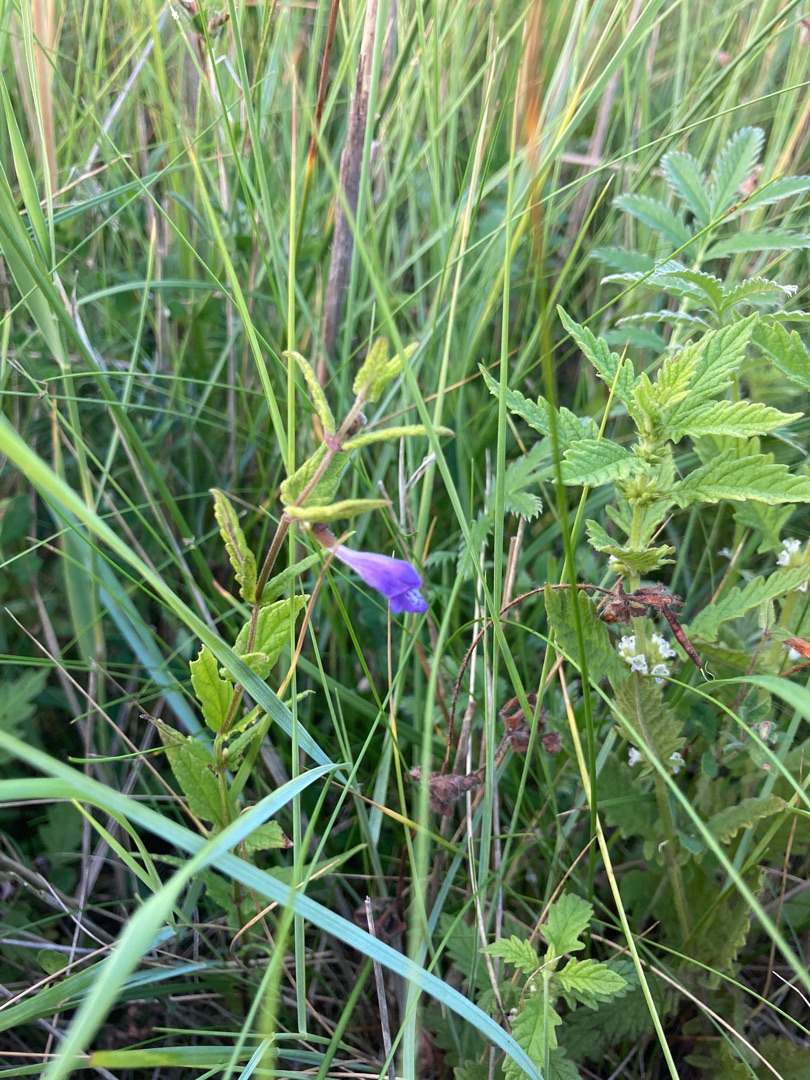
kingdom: Plantae
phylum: Tracheophyta
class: Magnoliopsida
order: Lamiales
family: Lamiaceae
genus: Scutellaria
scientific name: Scutellaria galericulata
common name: Almindelig skjolddrager
